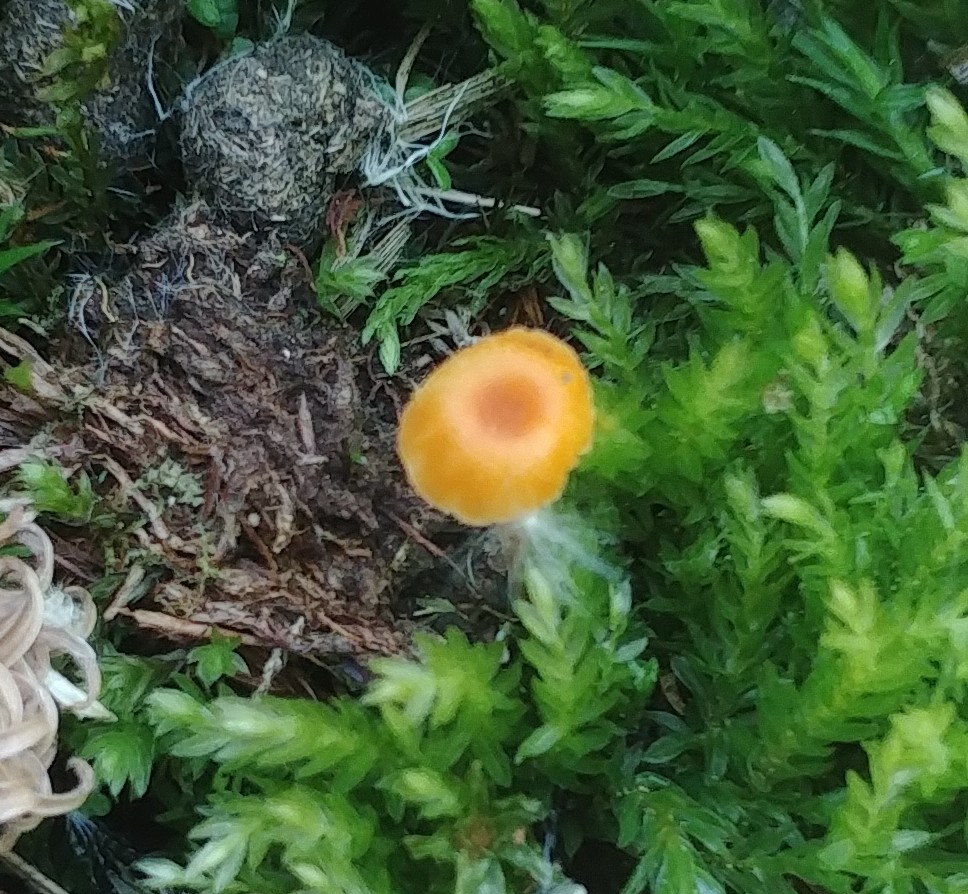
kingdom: Fungi
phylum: Basidiomycota
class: Agaricomycetes
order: Hymenochaetales
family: Rickenellaceae
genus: Rickenella
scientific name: Rickenella fibula
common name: orange mosnavlehat
